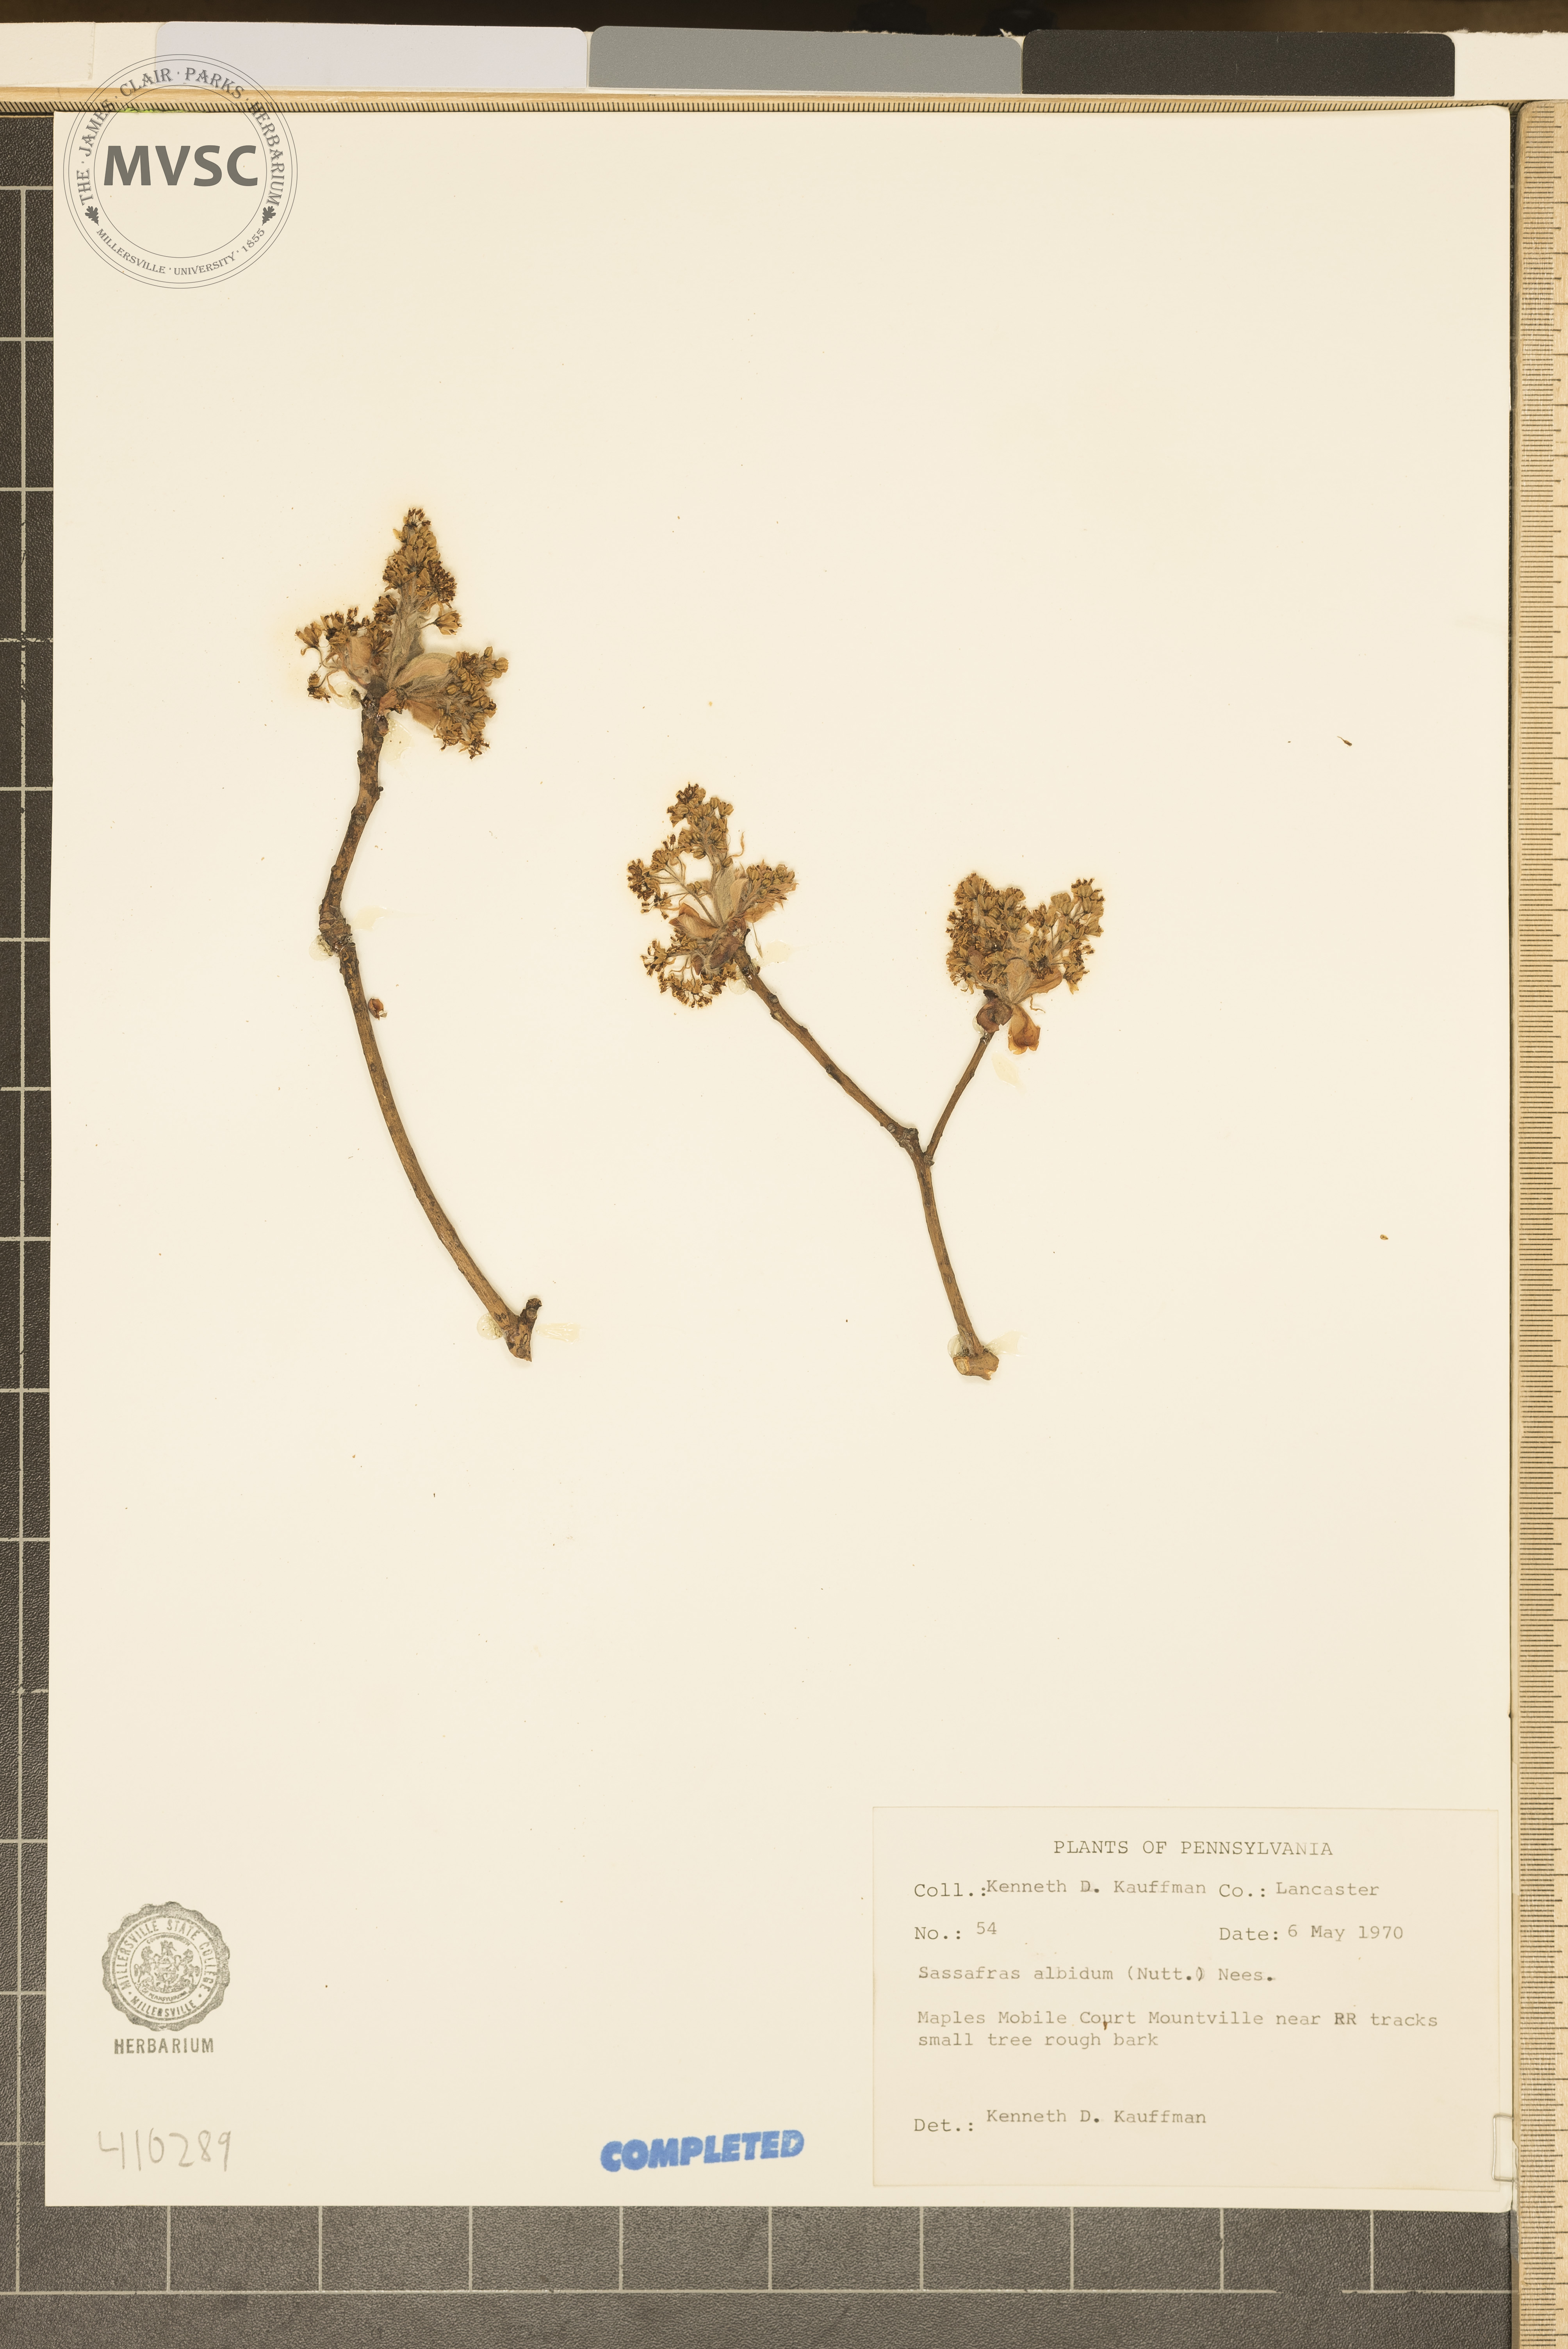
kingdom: Plantae
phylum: Tracheophyta
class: Magnoliopsida
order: Laurales
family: Lauraceae
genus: Sassafras
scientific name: Sassafras albidum
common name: Sassafras
